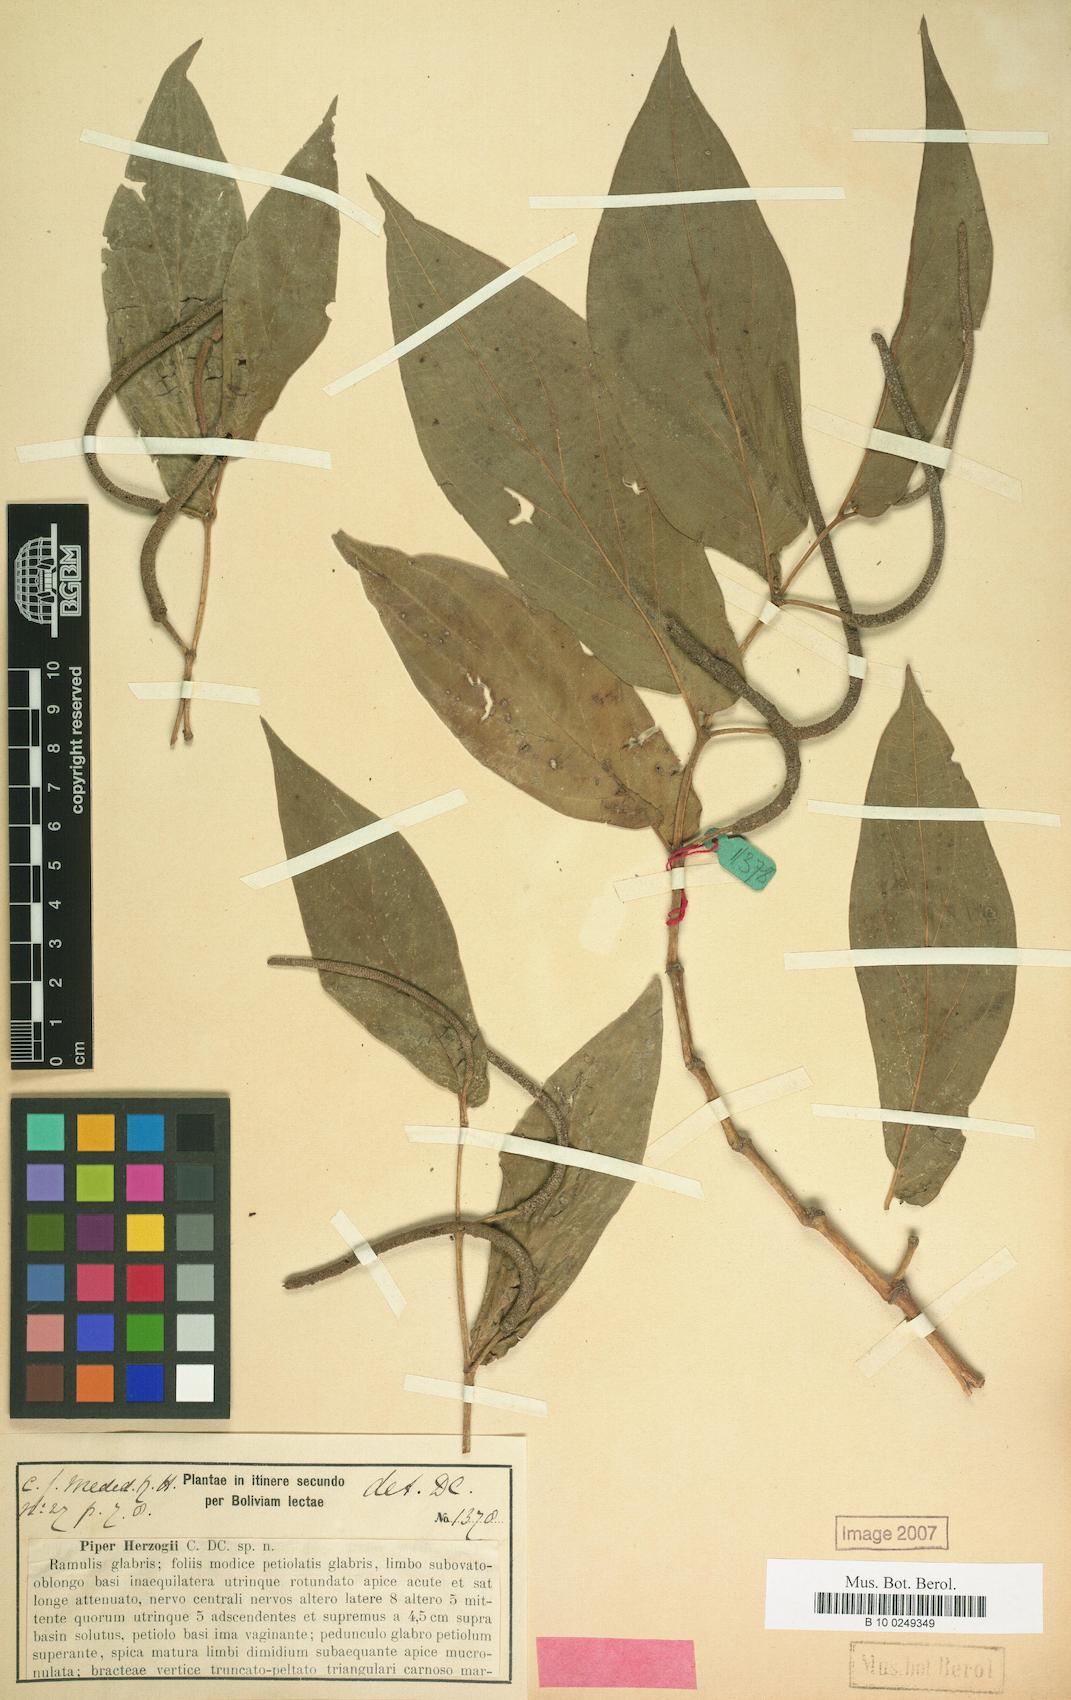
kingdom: Plantae
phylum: Tracheophyta
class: Magnoliopsida
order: Piperales
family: Piperaceae
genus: Piper
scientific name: Piper aduncum
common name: Spiked pepper
